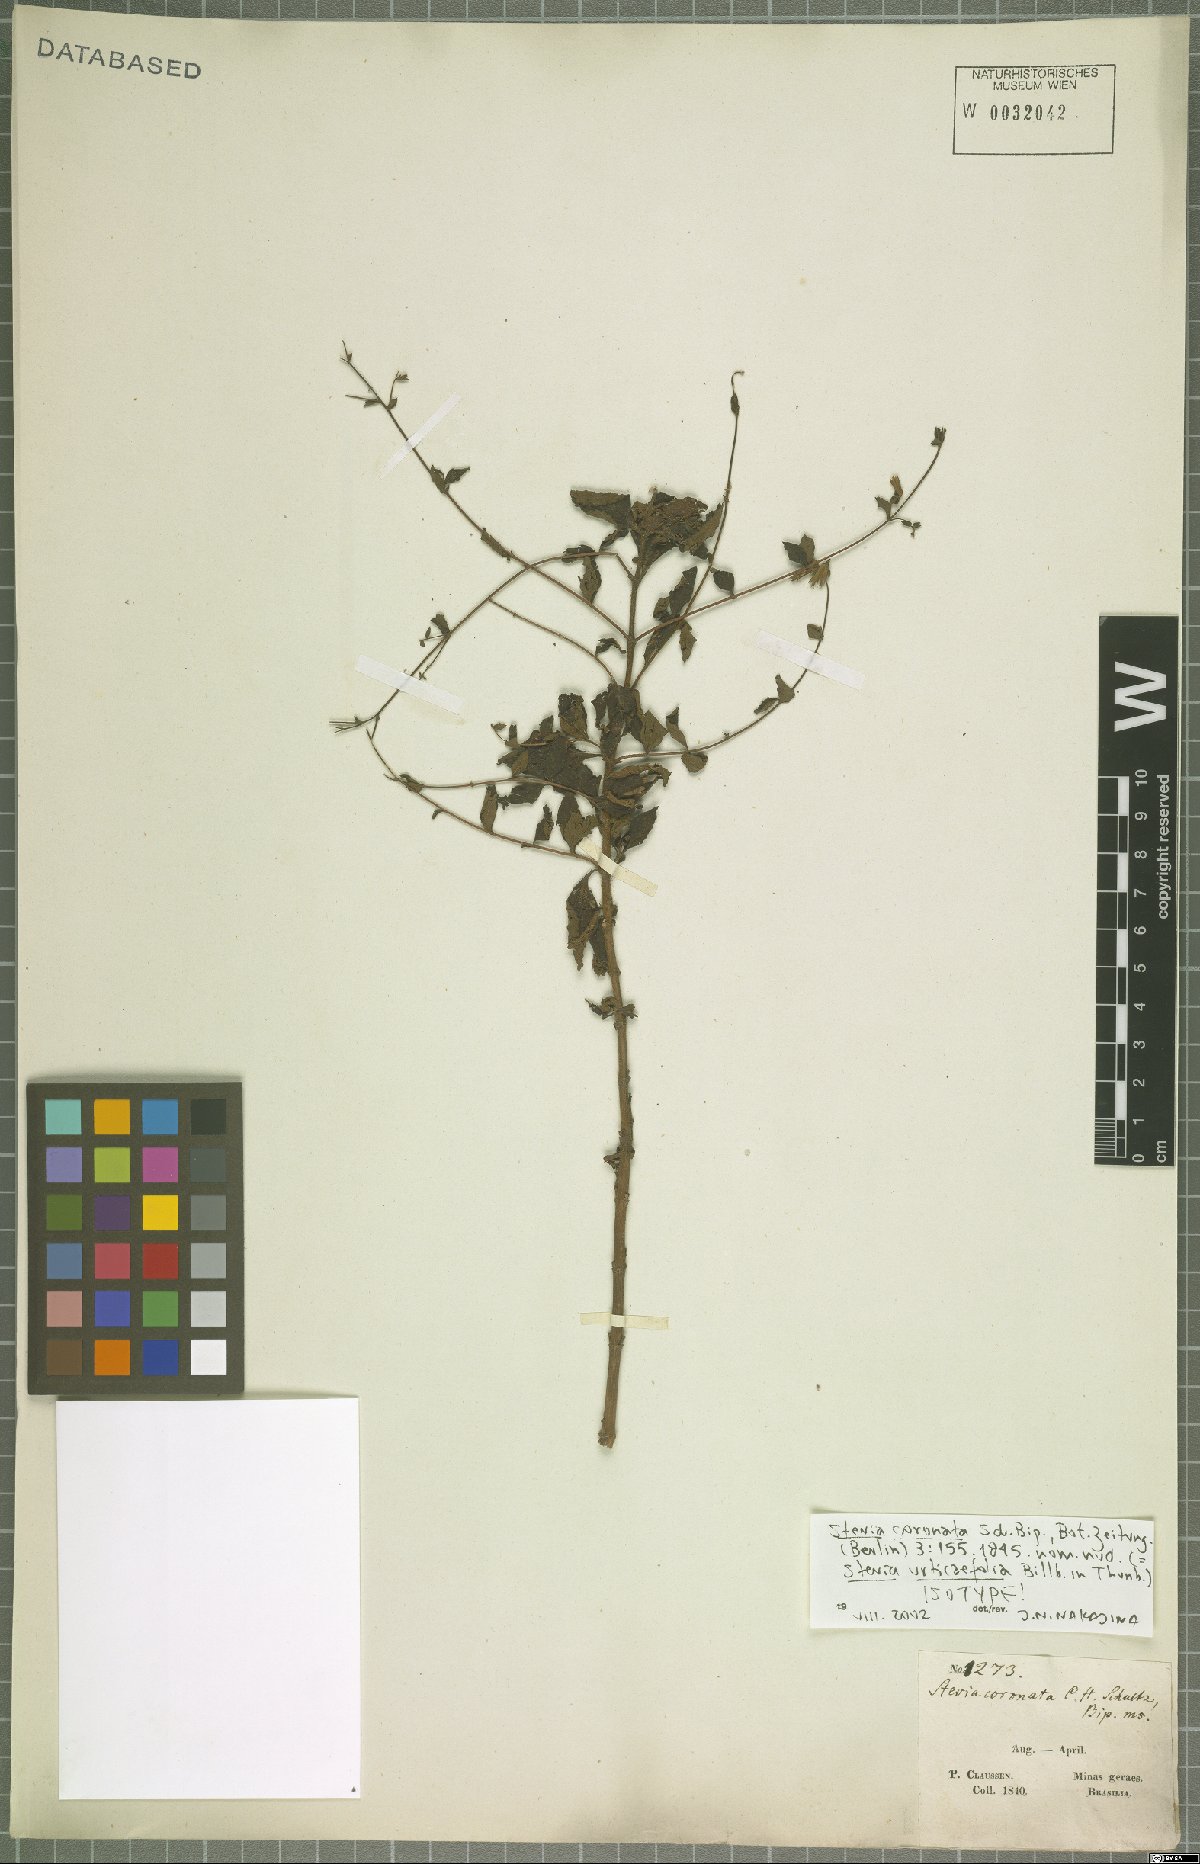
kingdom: Plantae
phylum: Tracheophyta
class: Magnoliopsida
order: Asterales
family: Asteraceae
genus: Stevia
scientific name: Stevia urticifolia
